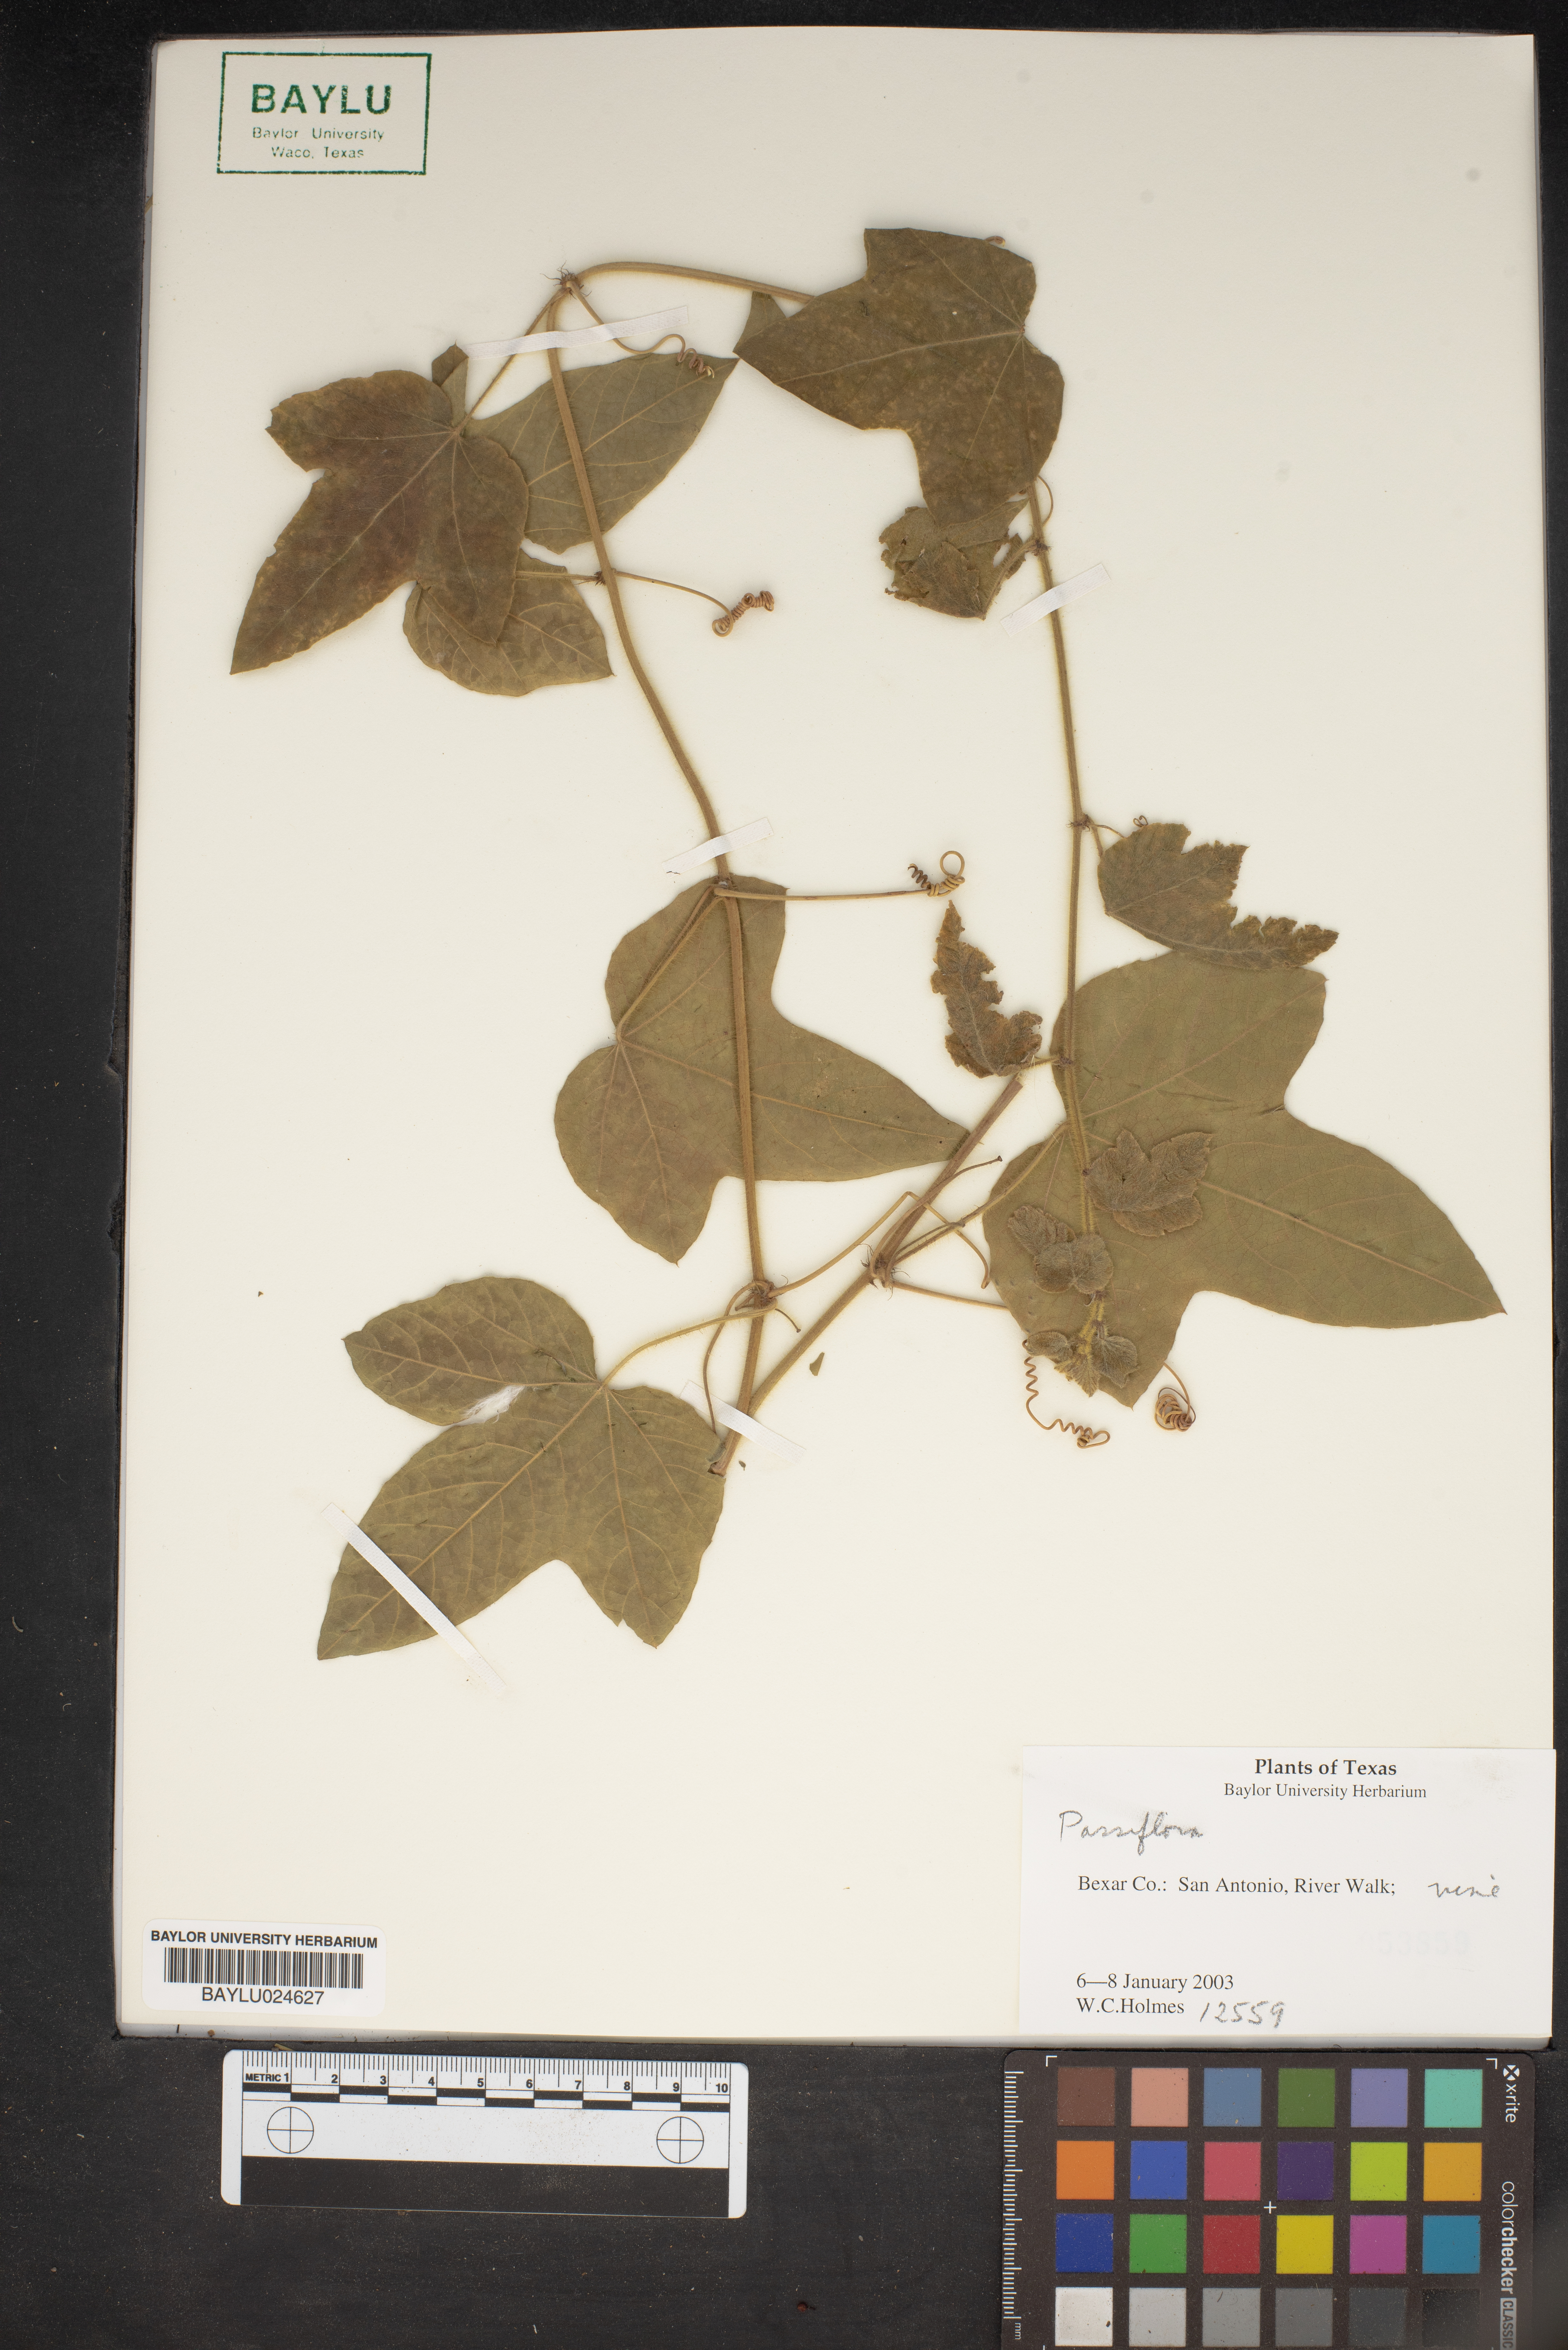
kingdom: Plantae
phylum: Tracheophyta
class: Magnoliopsida
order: Malpighiales
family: Passifloraceae
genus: Passiflora
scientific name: Passiflora
